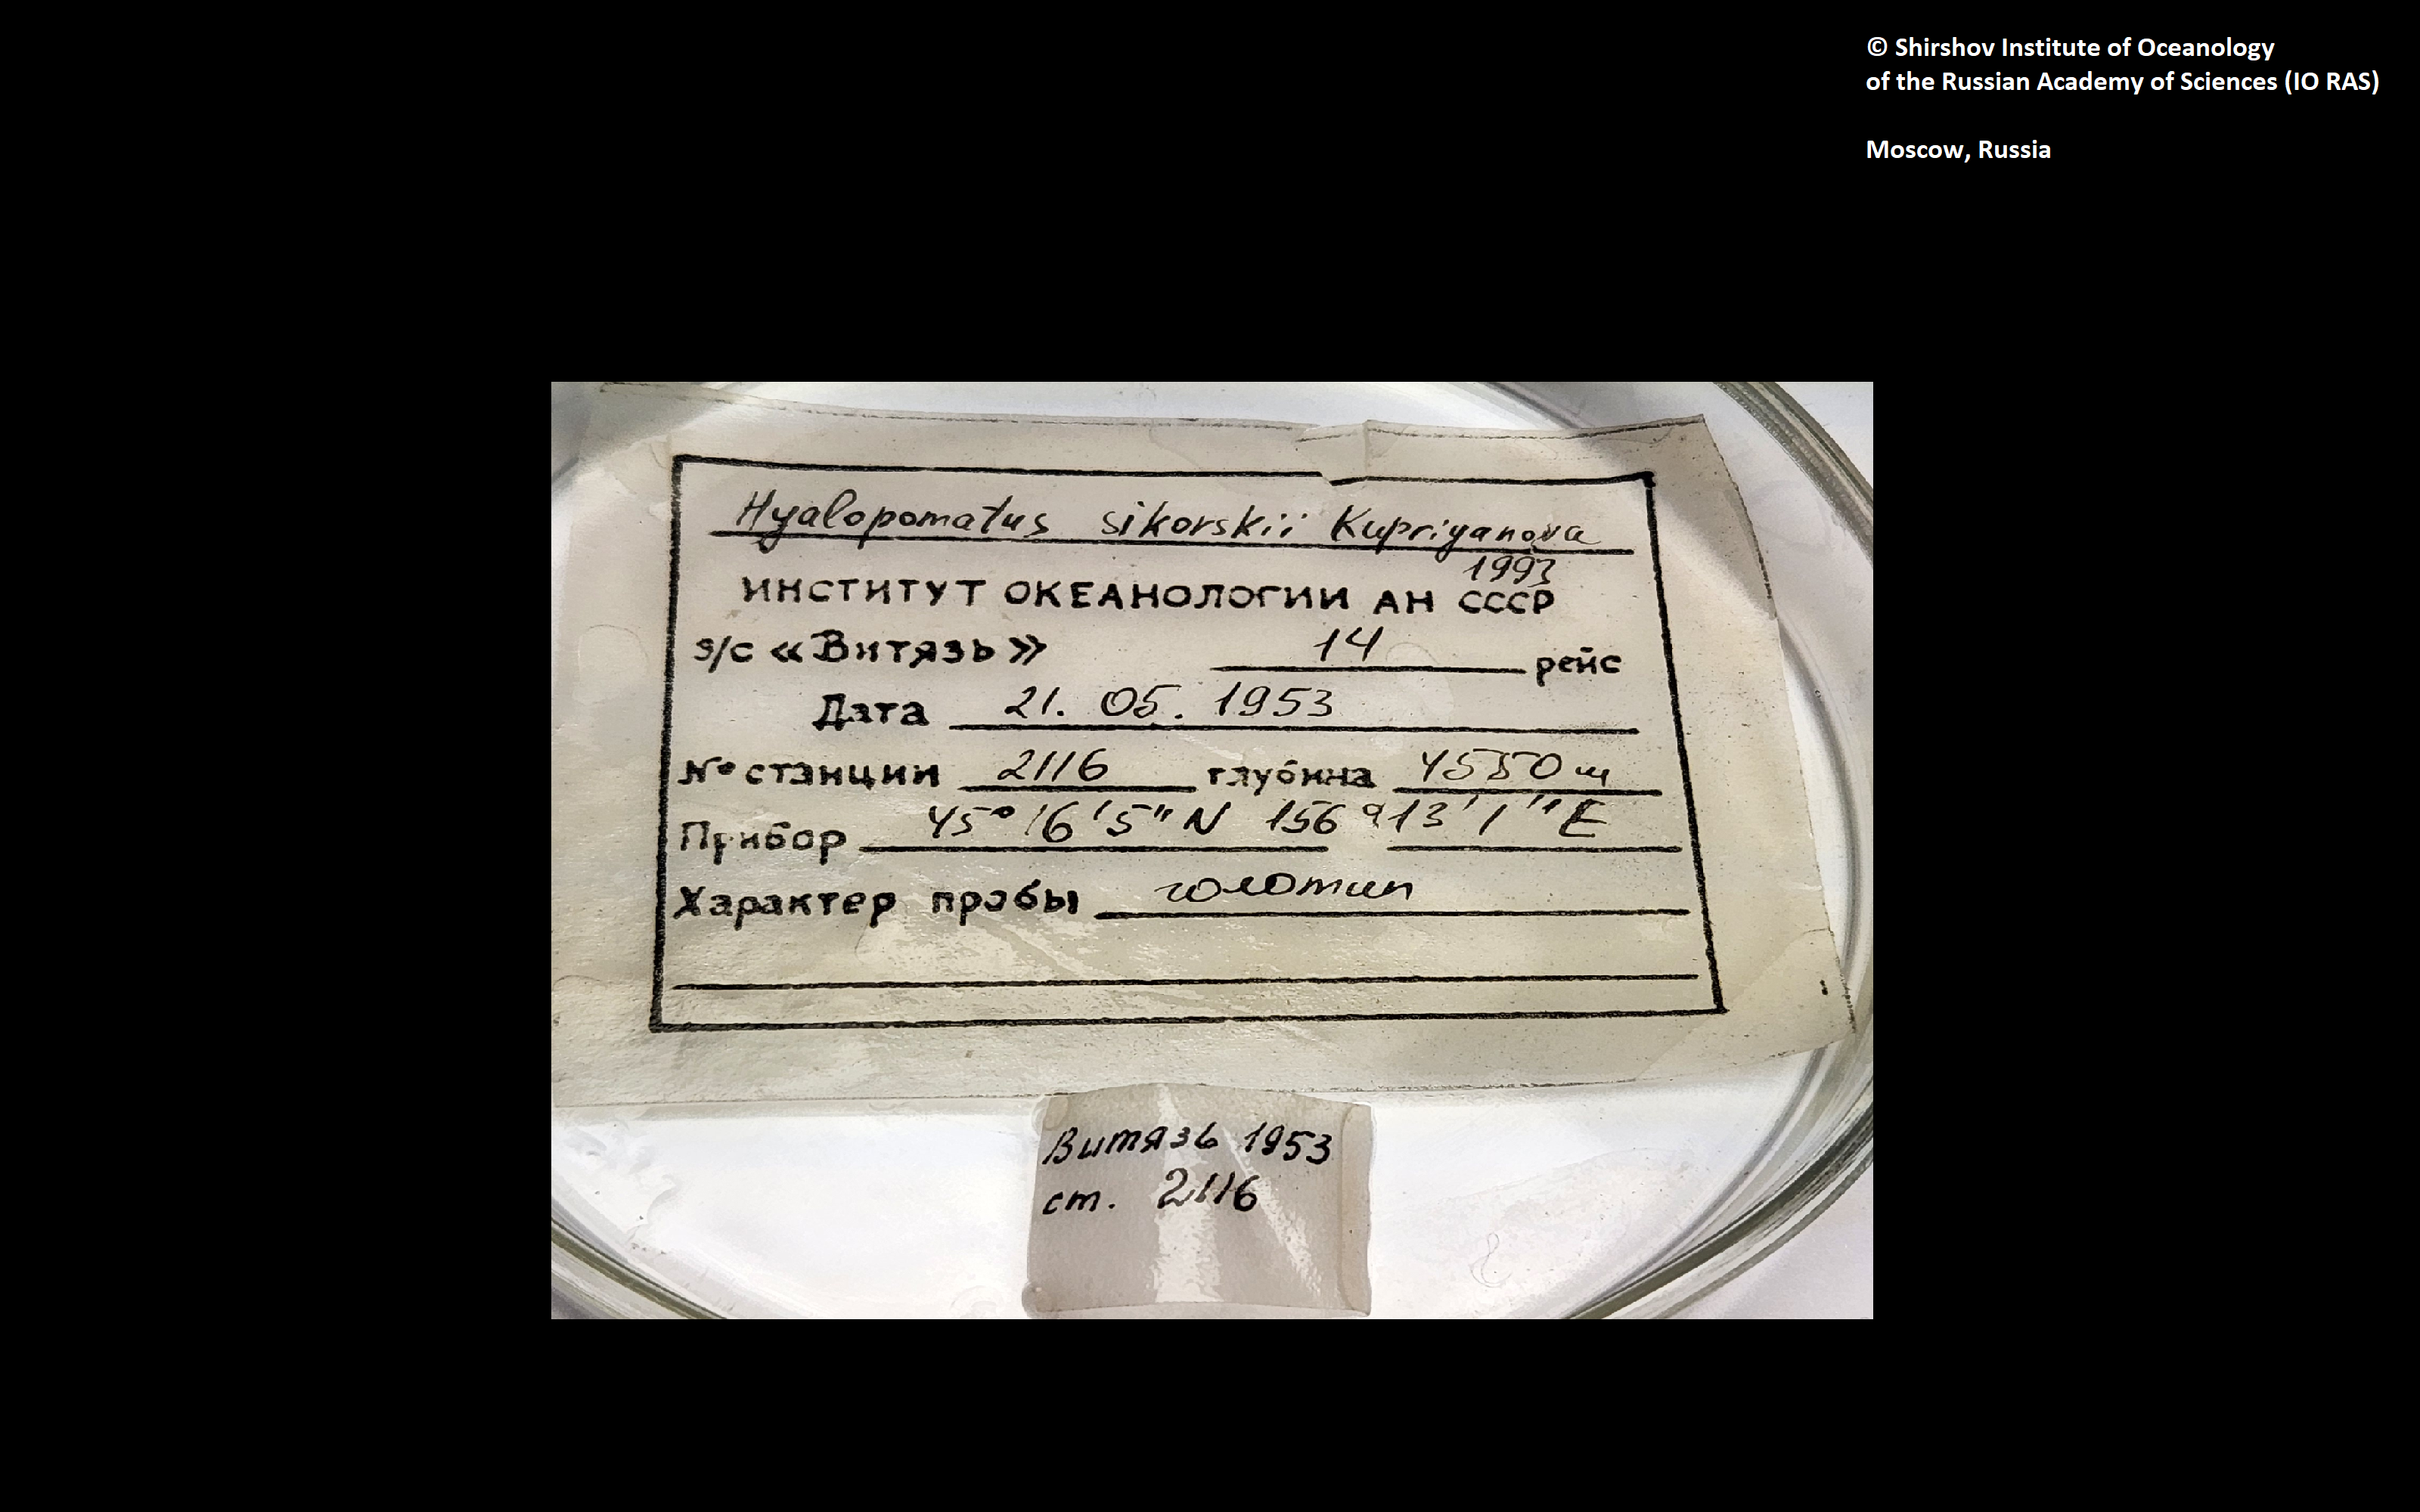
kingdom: Animalia
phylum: Annelida
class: Polychaeta
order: Sabellida
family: Serpulidae
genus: Hyalopomatus
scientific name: Hyalopomatus sikorskii
